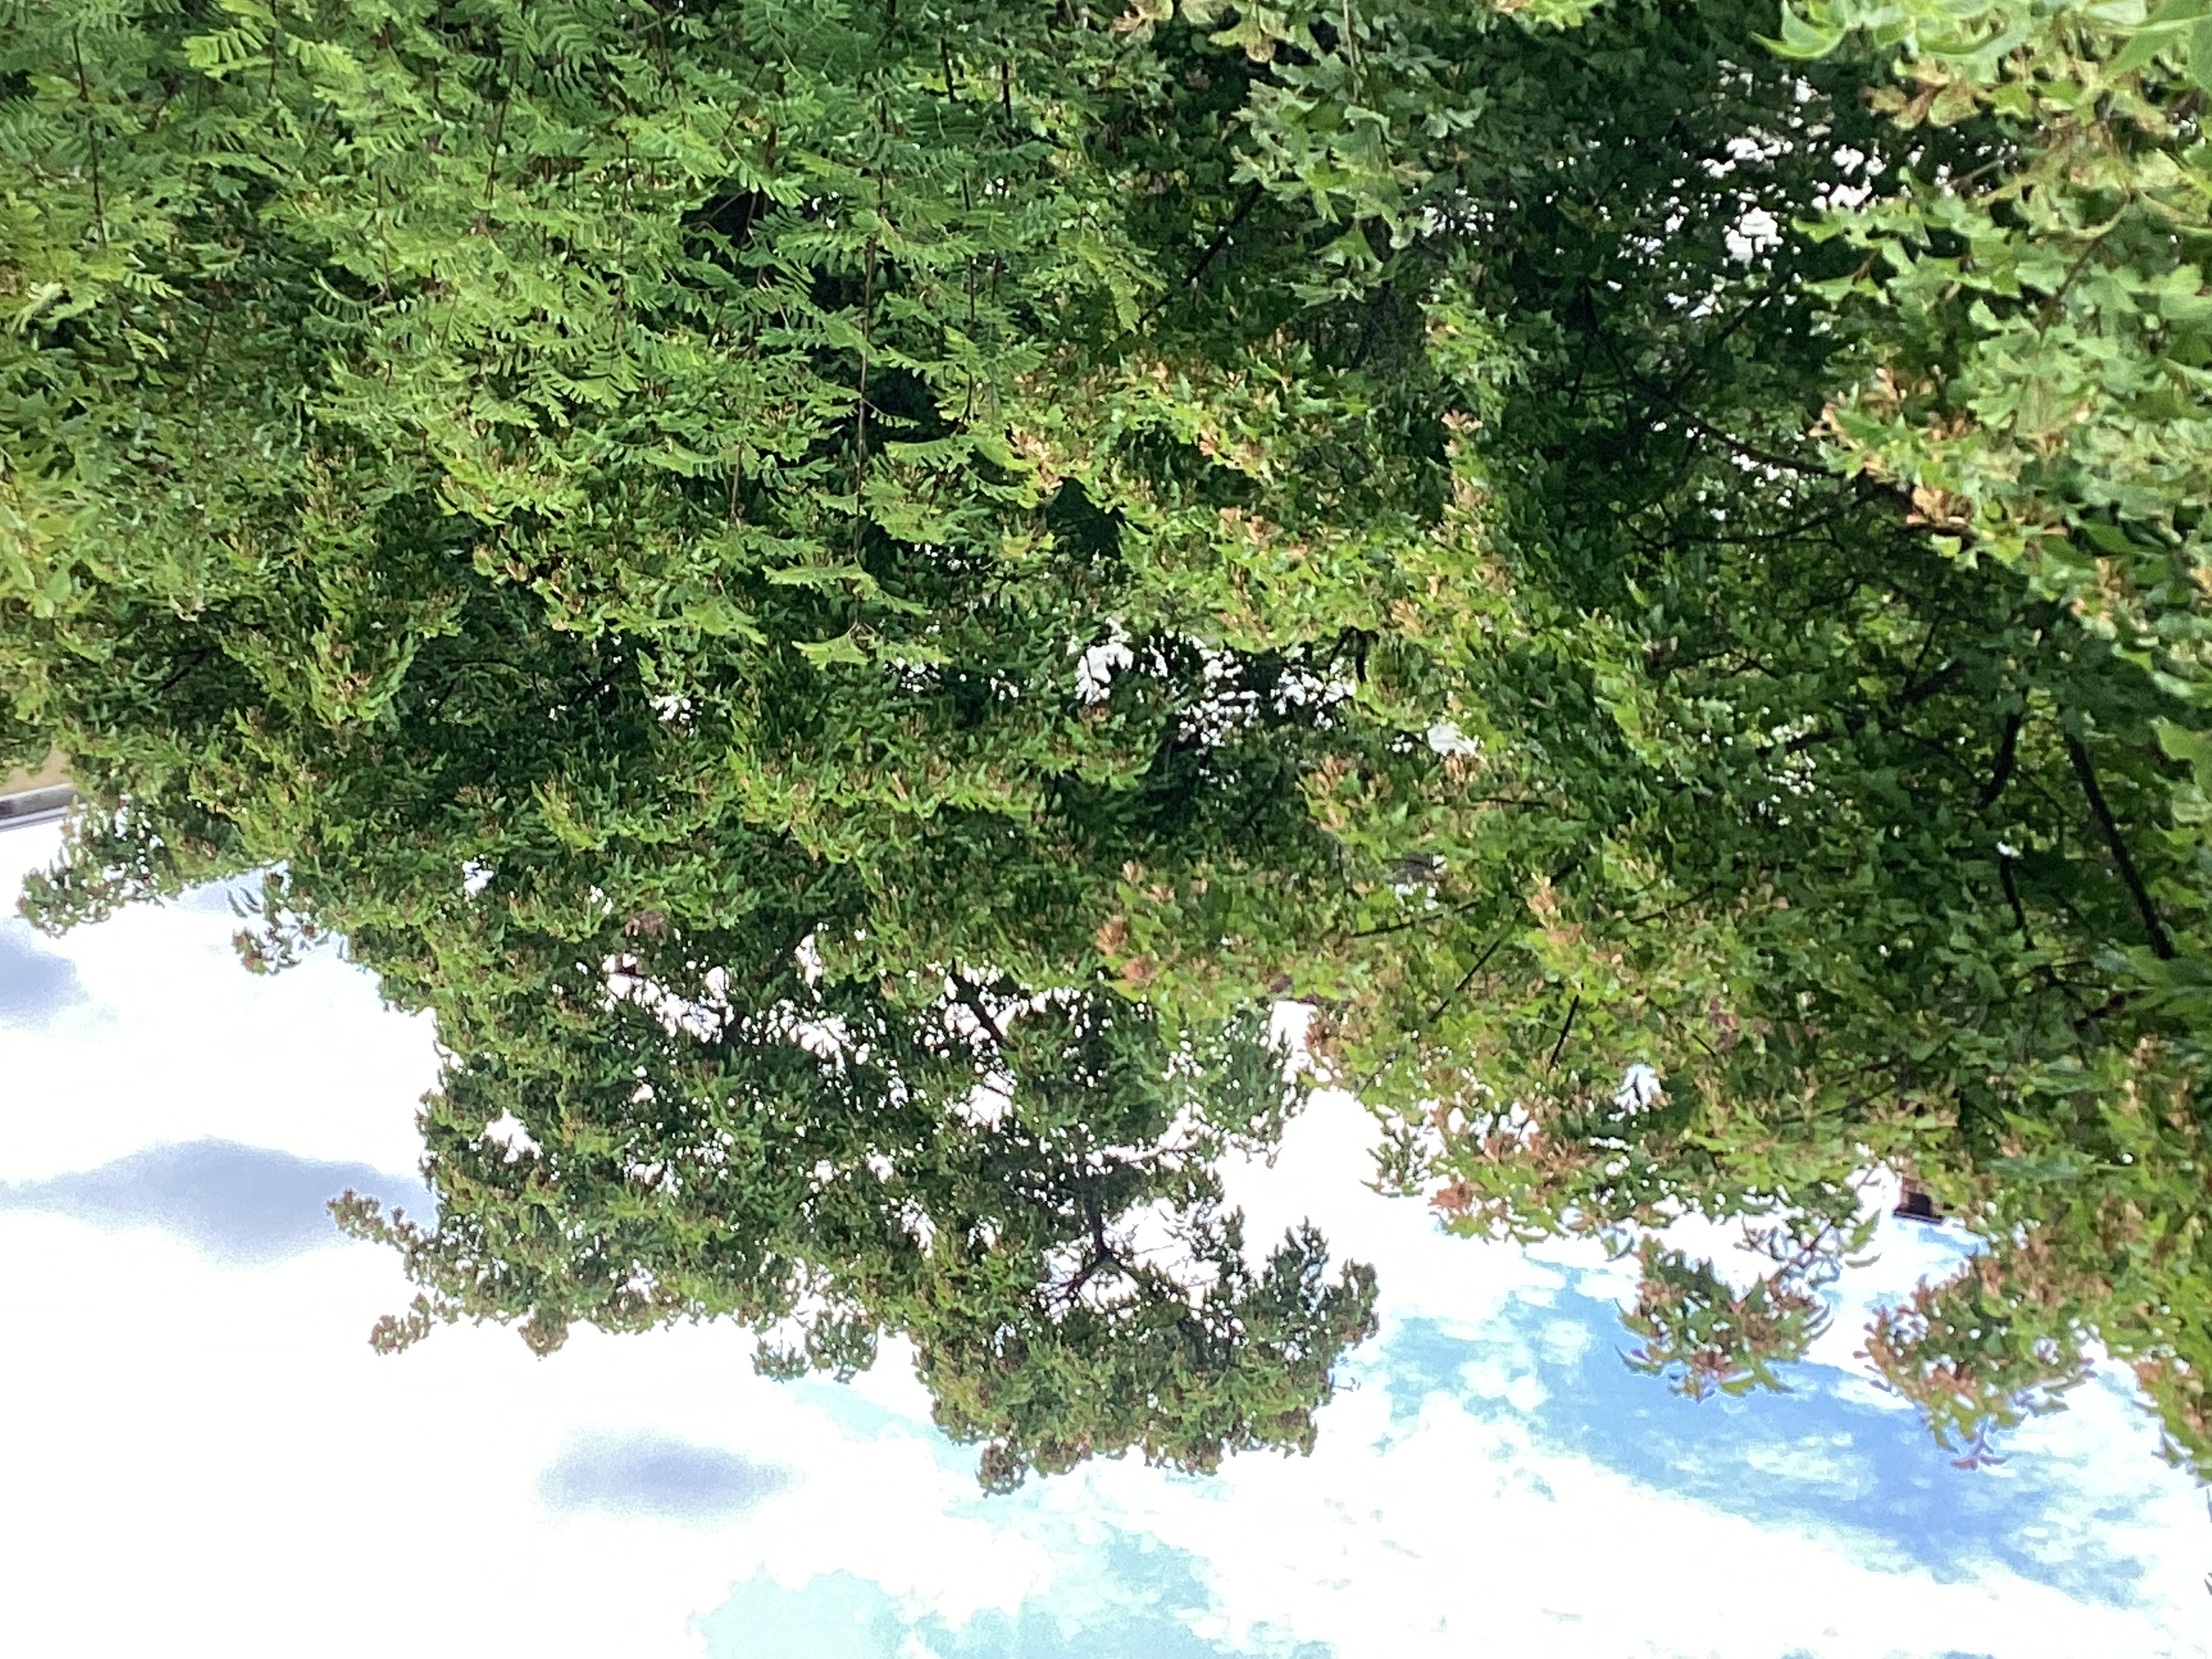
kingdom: Plantae
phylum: Tracheophyta
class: Magnoliopsida
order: Sapindales
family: Sapindaceae
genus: Acer
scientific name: Acer tataricum
